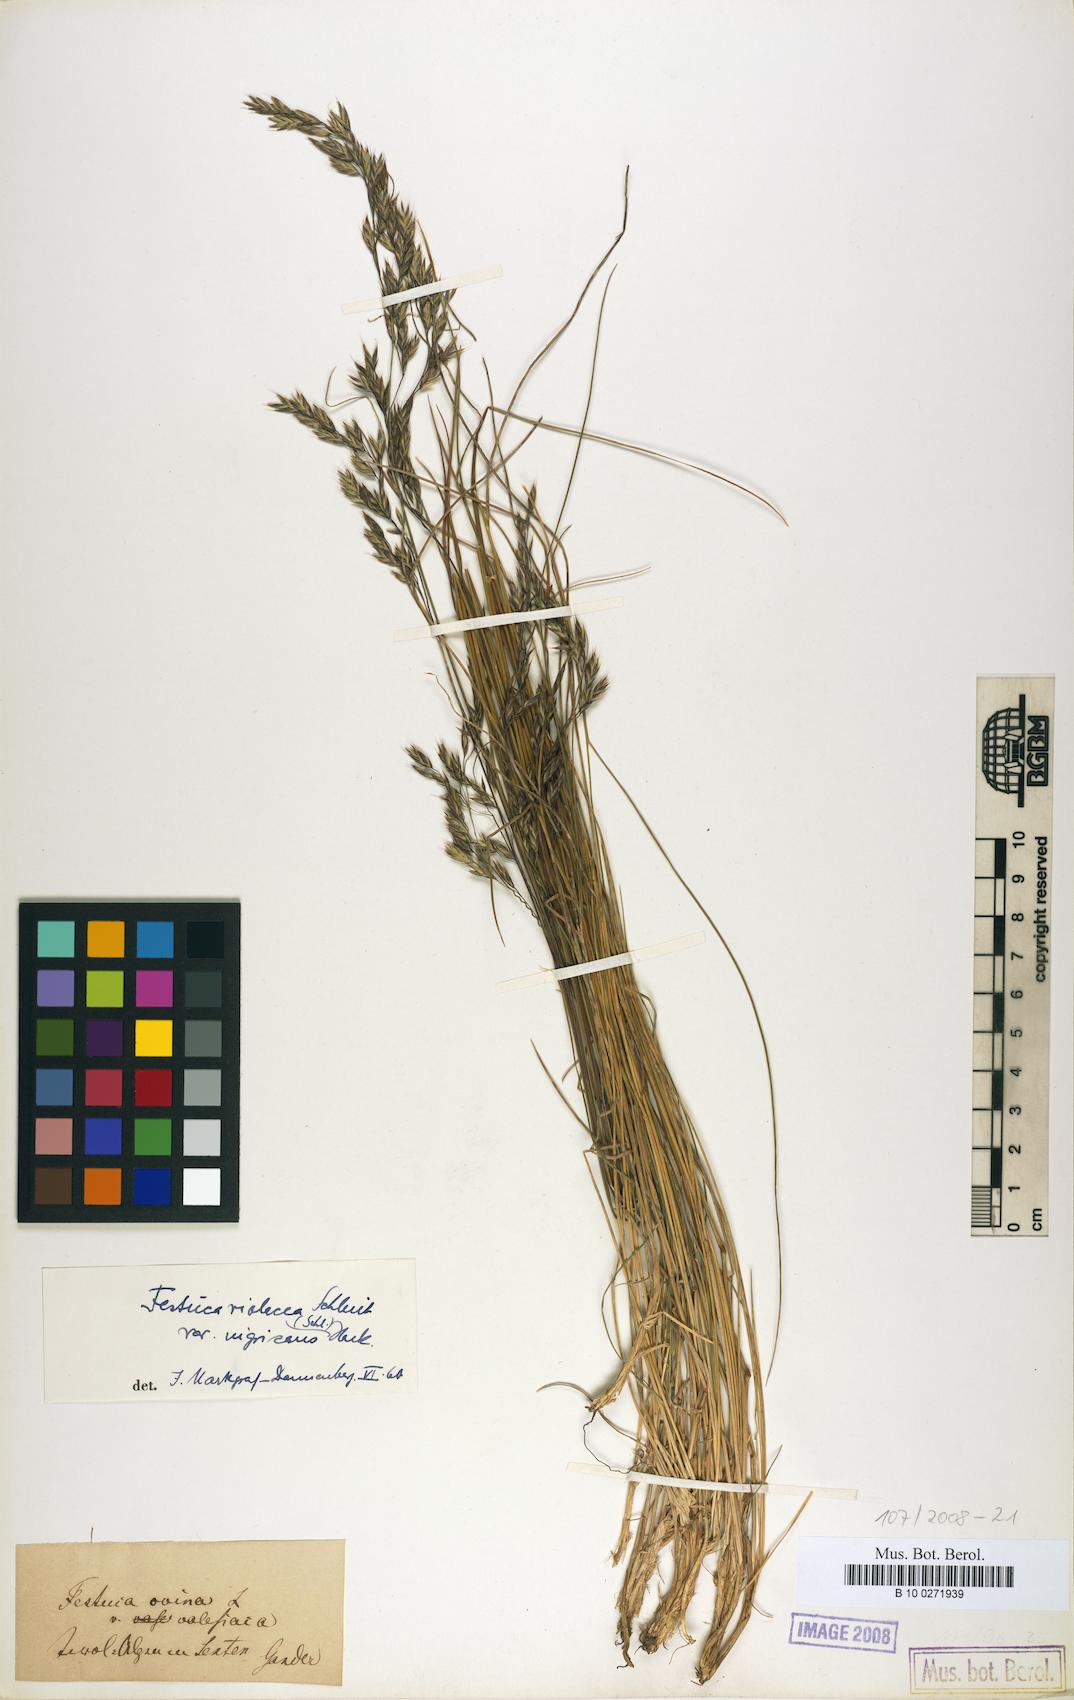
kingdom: Plantae
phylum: Tracheophyta
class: Liliopsida
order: Poales
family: Poaceae
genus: Festuca
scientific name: Festuca violacea
